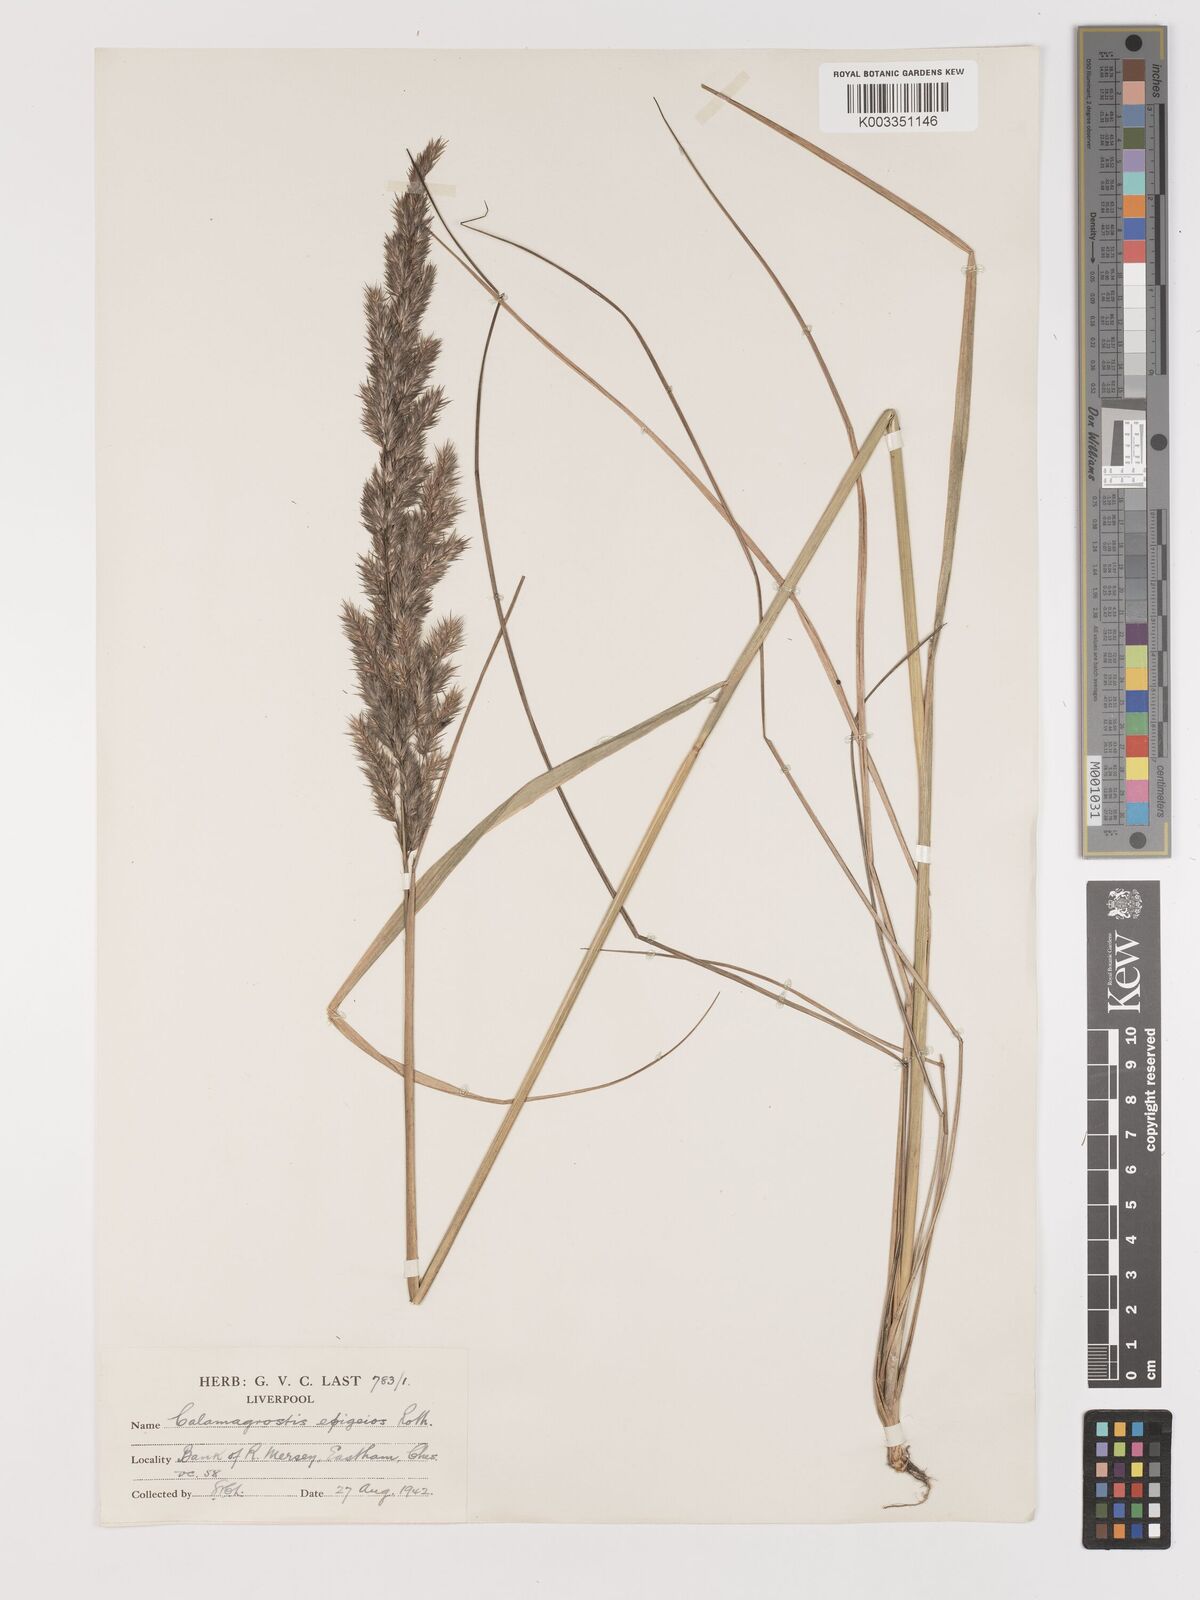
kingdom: Plantae
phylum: Tracheophyta
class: Liliopsida
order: Poales
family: Poaceae
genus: Calamagrostis
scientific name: Calamagrostis
